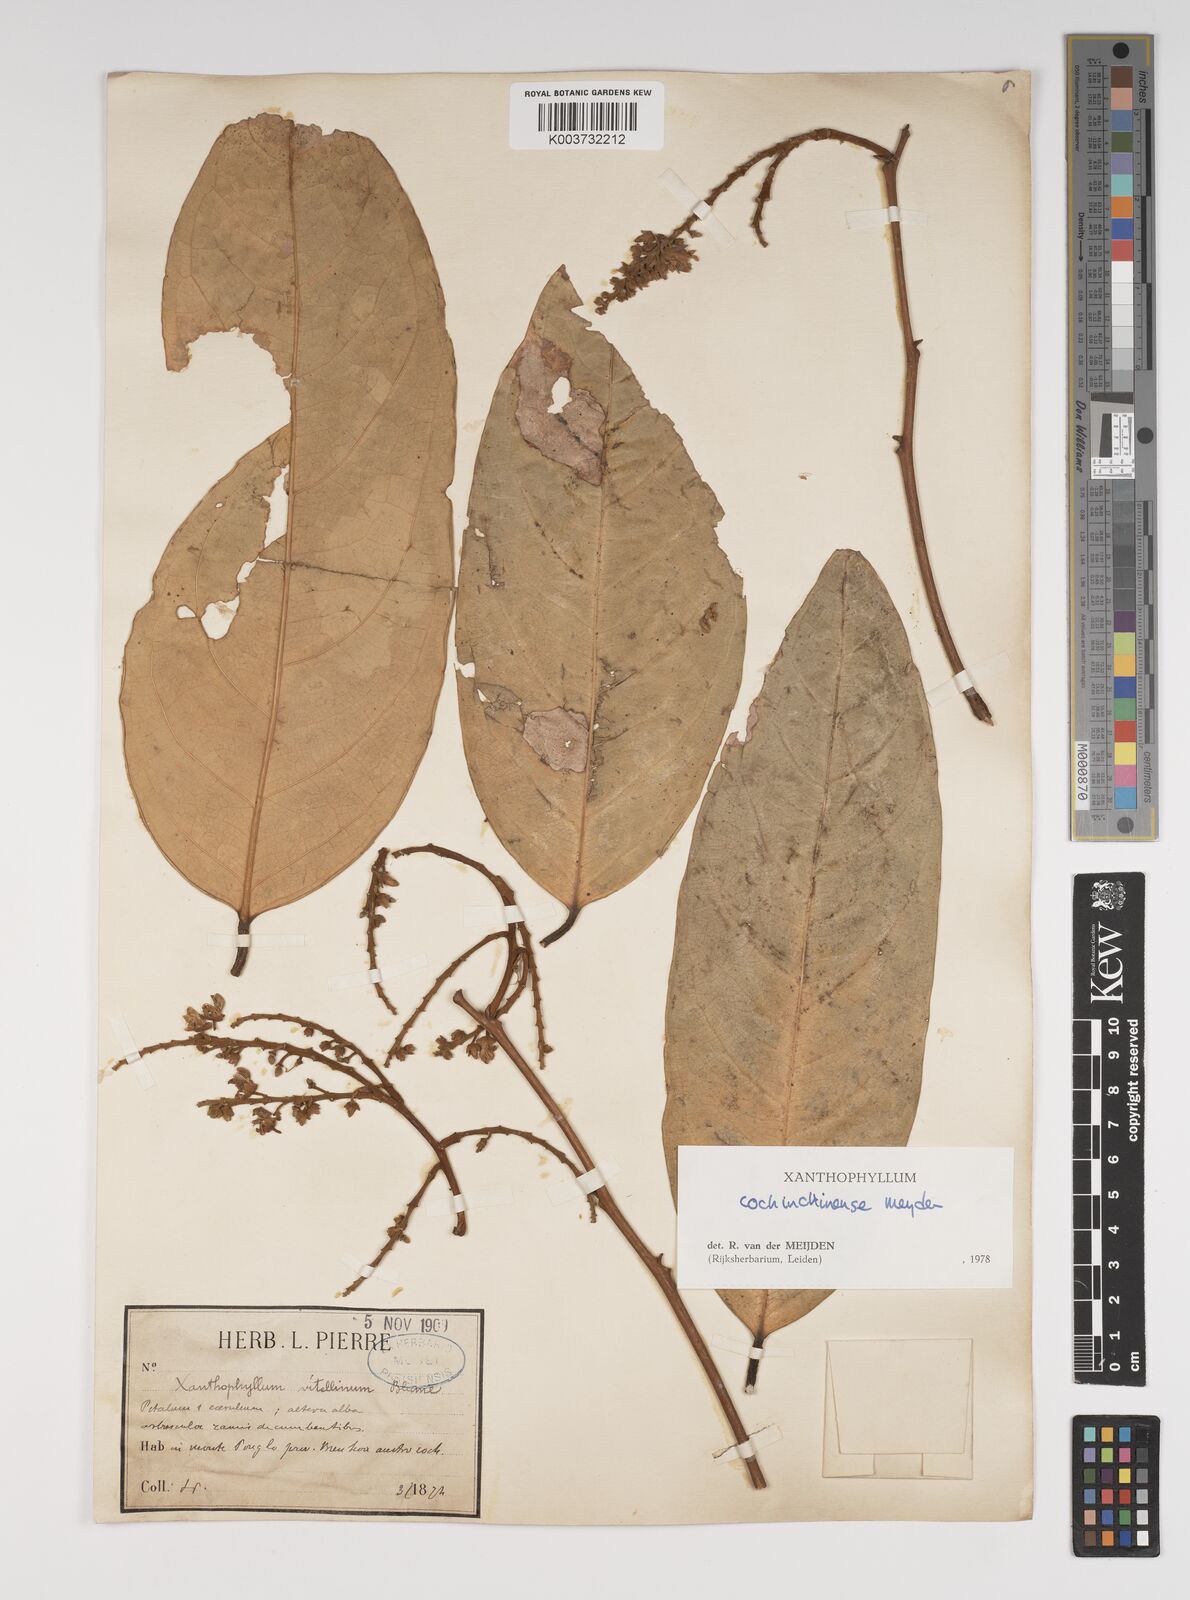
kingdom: Plantae
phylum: Tracheophyta
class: Magnoliopsida
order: Fabales
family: Polygalaceae
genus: Xanthophyllum
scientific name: Xanthophyllum cochinchinense
